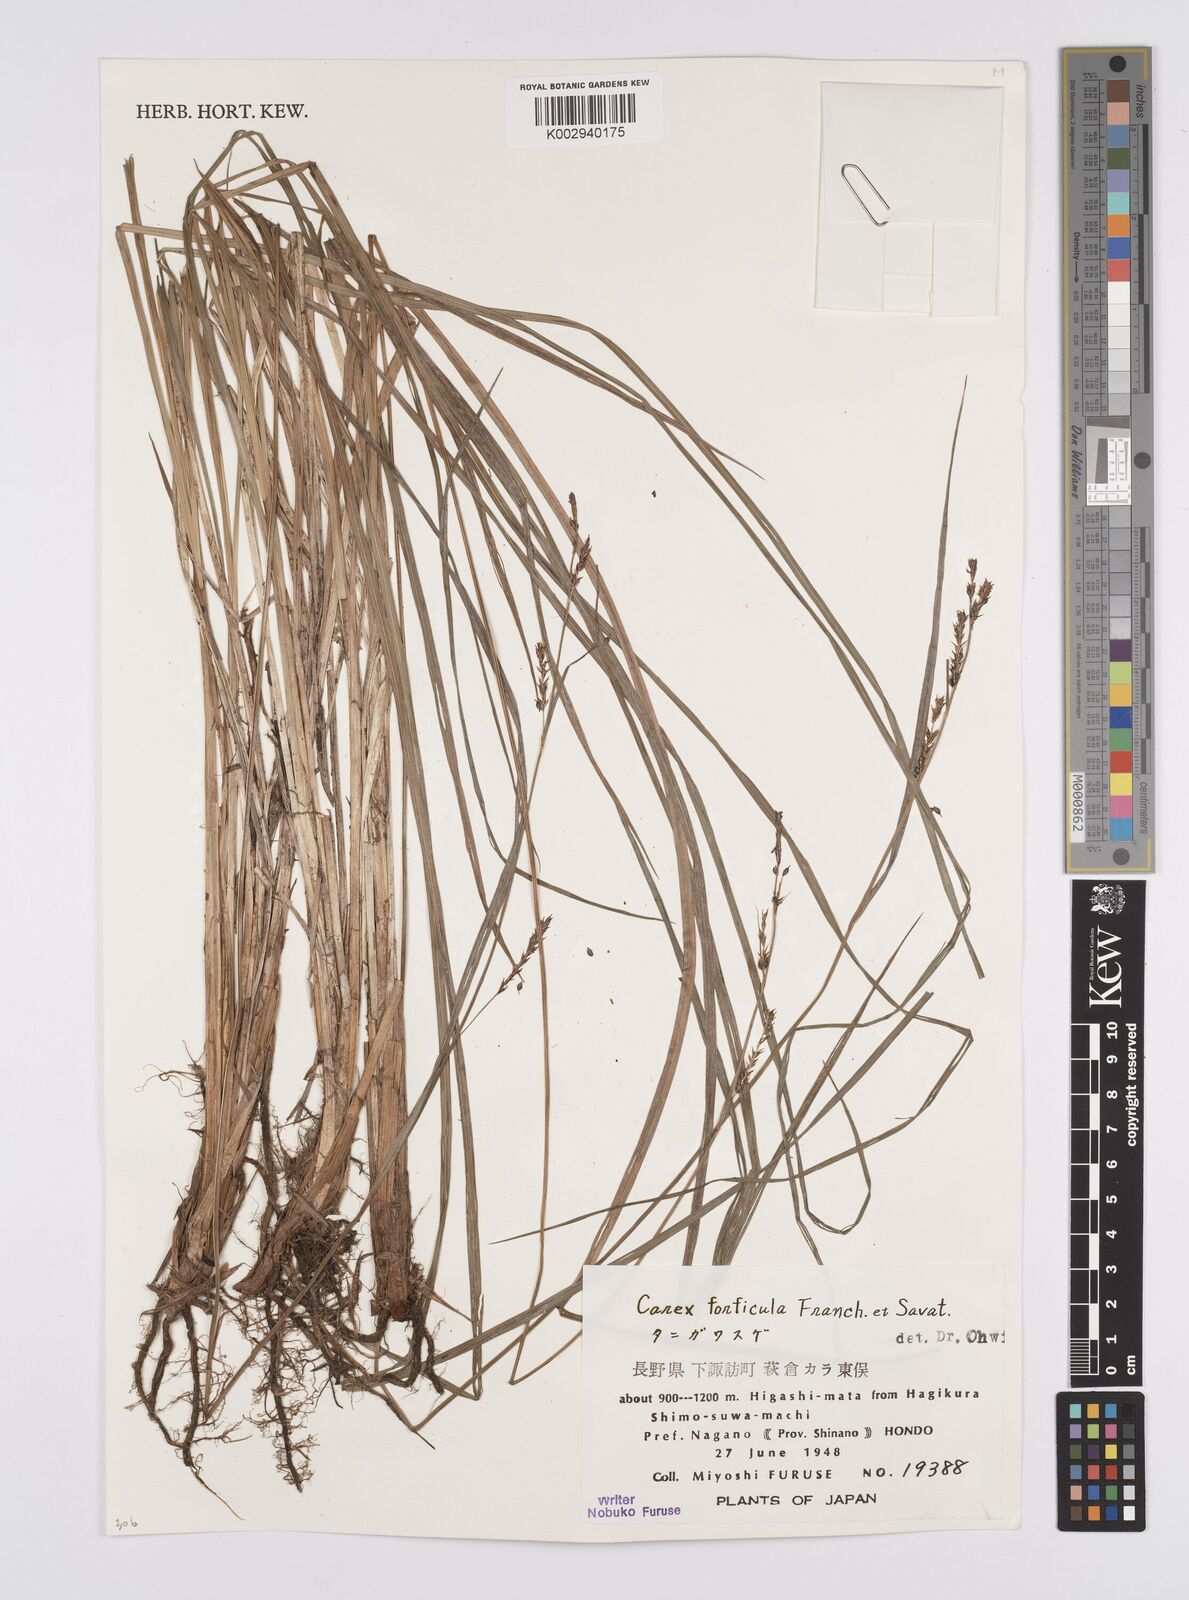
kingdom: Plantae
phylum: Tracheophyta
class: Liliopsida
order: Poales
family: Cyperaceae
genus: Carex
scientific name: Carex forficula
